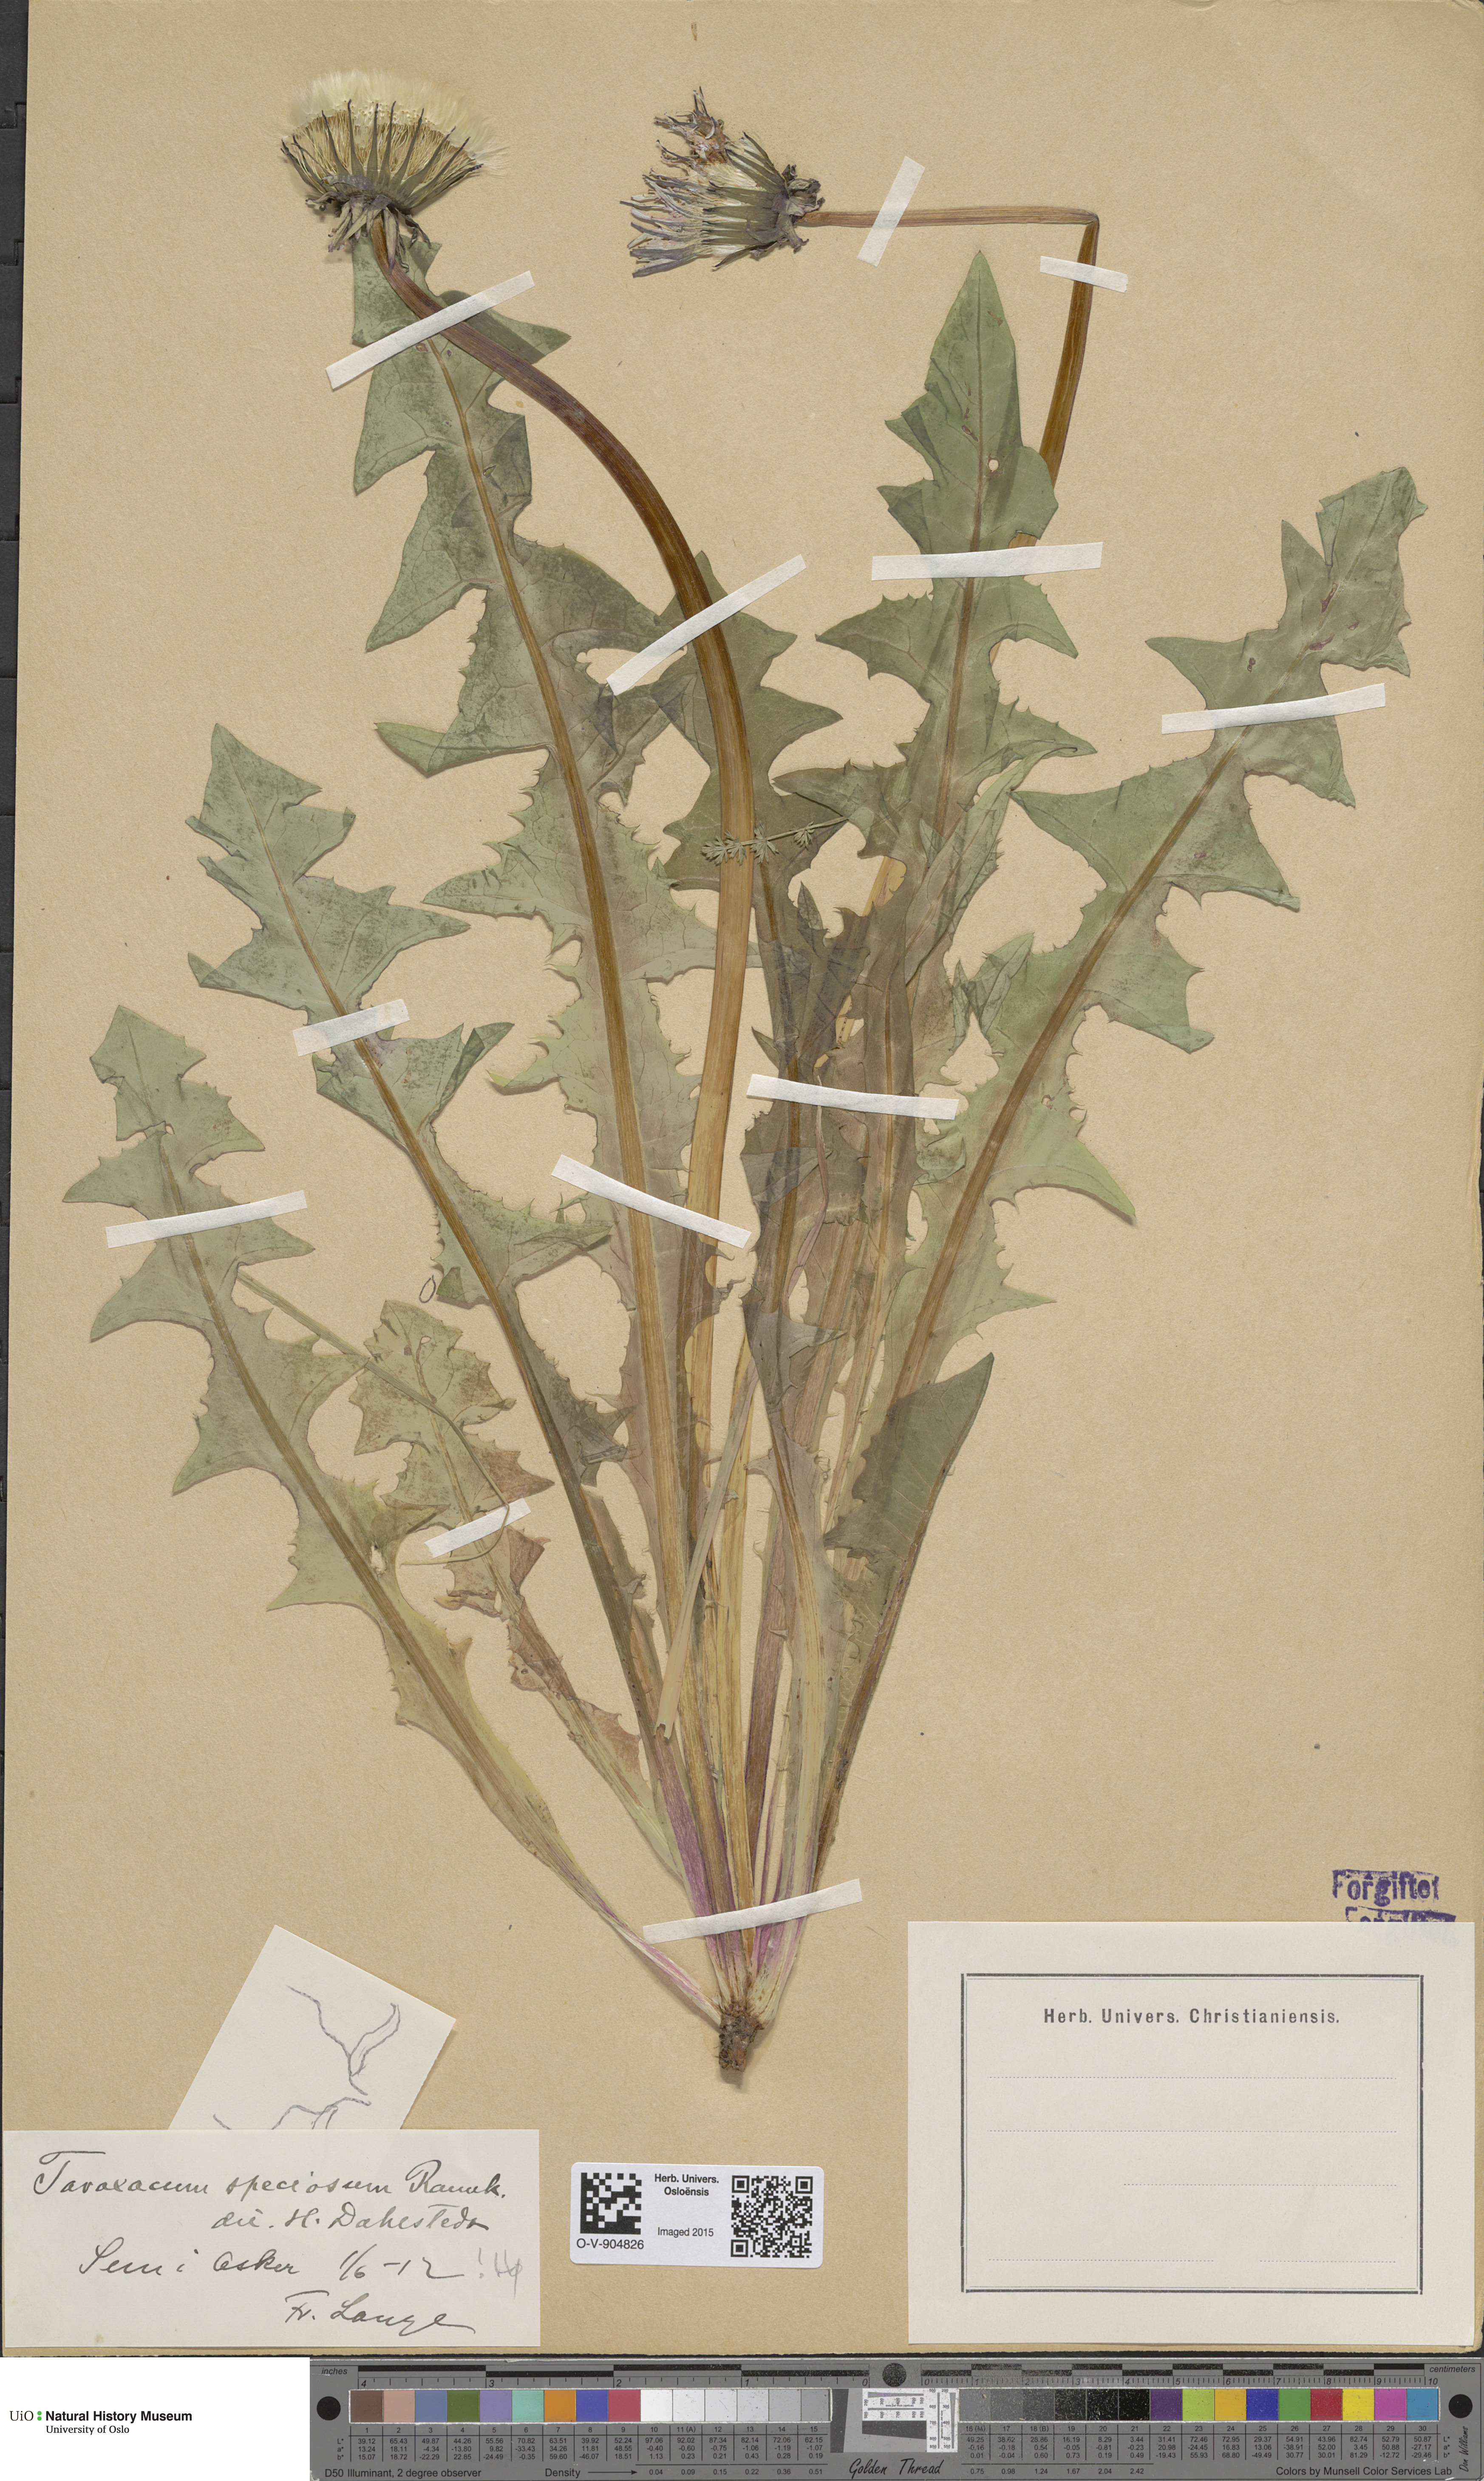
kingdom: Plantae
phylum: Tracheophyta
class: Magnoliopsida
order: Asterales
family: Asteraceae
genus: Taraxacum
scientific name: Taraxacum speciosum
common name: Massive dandelion
